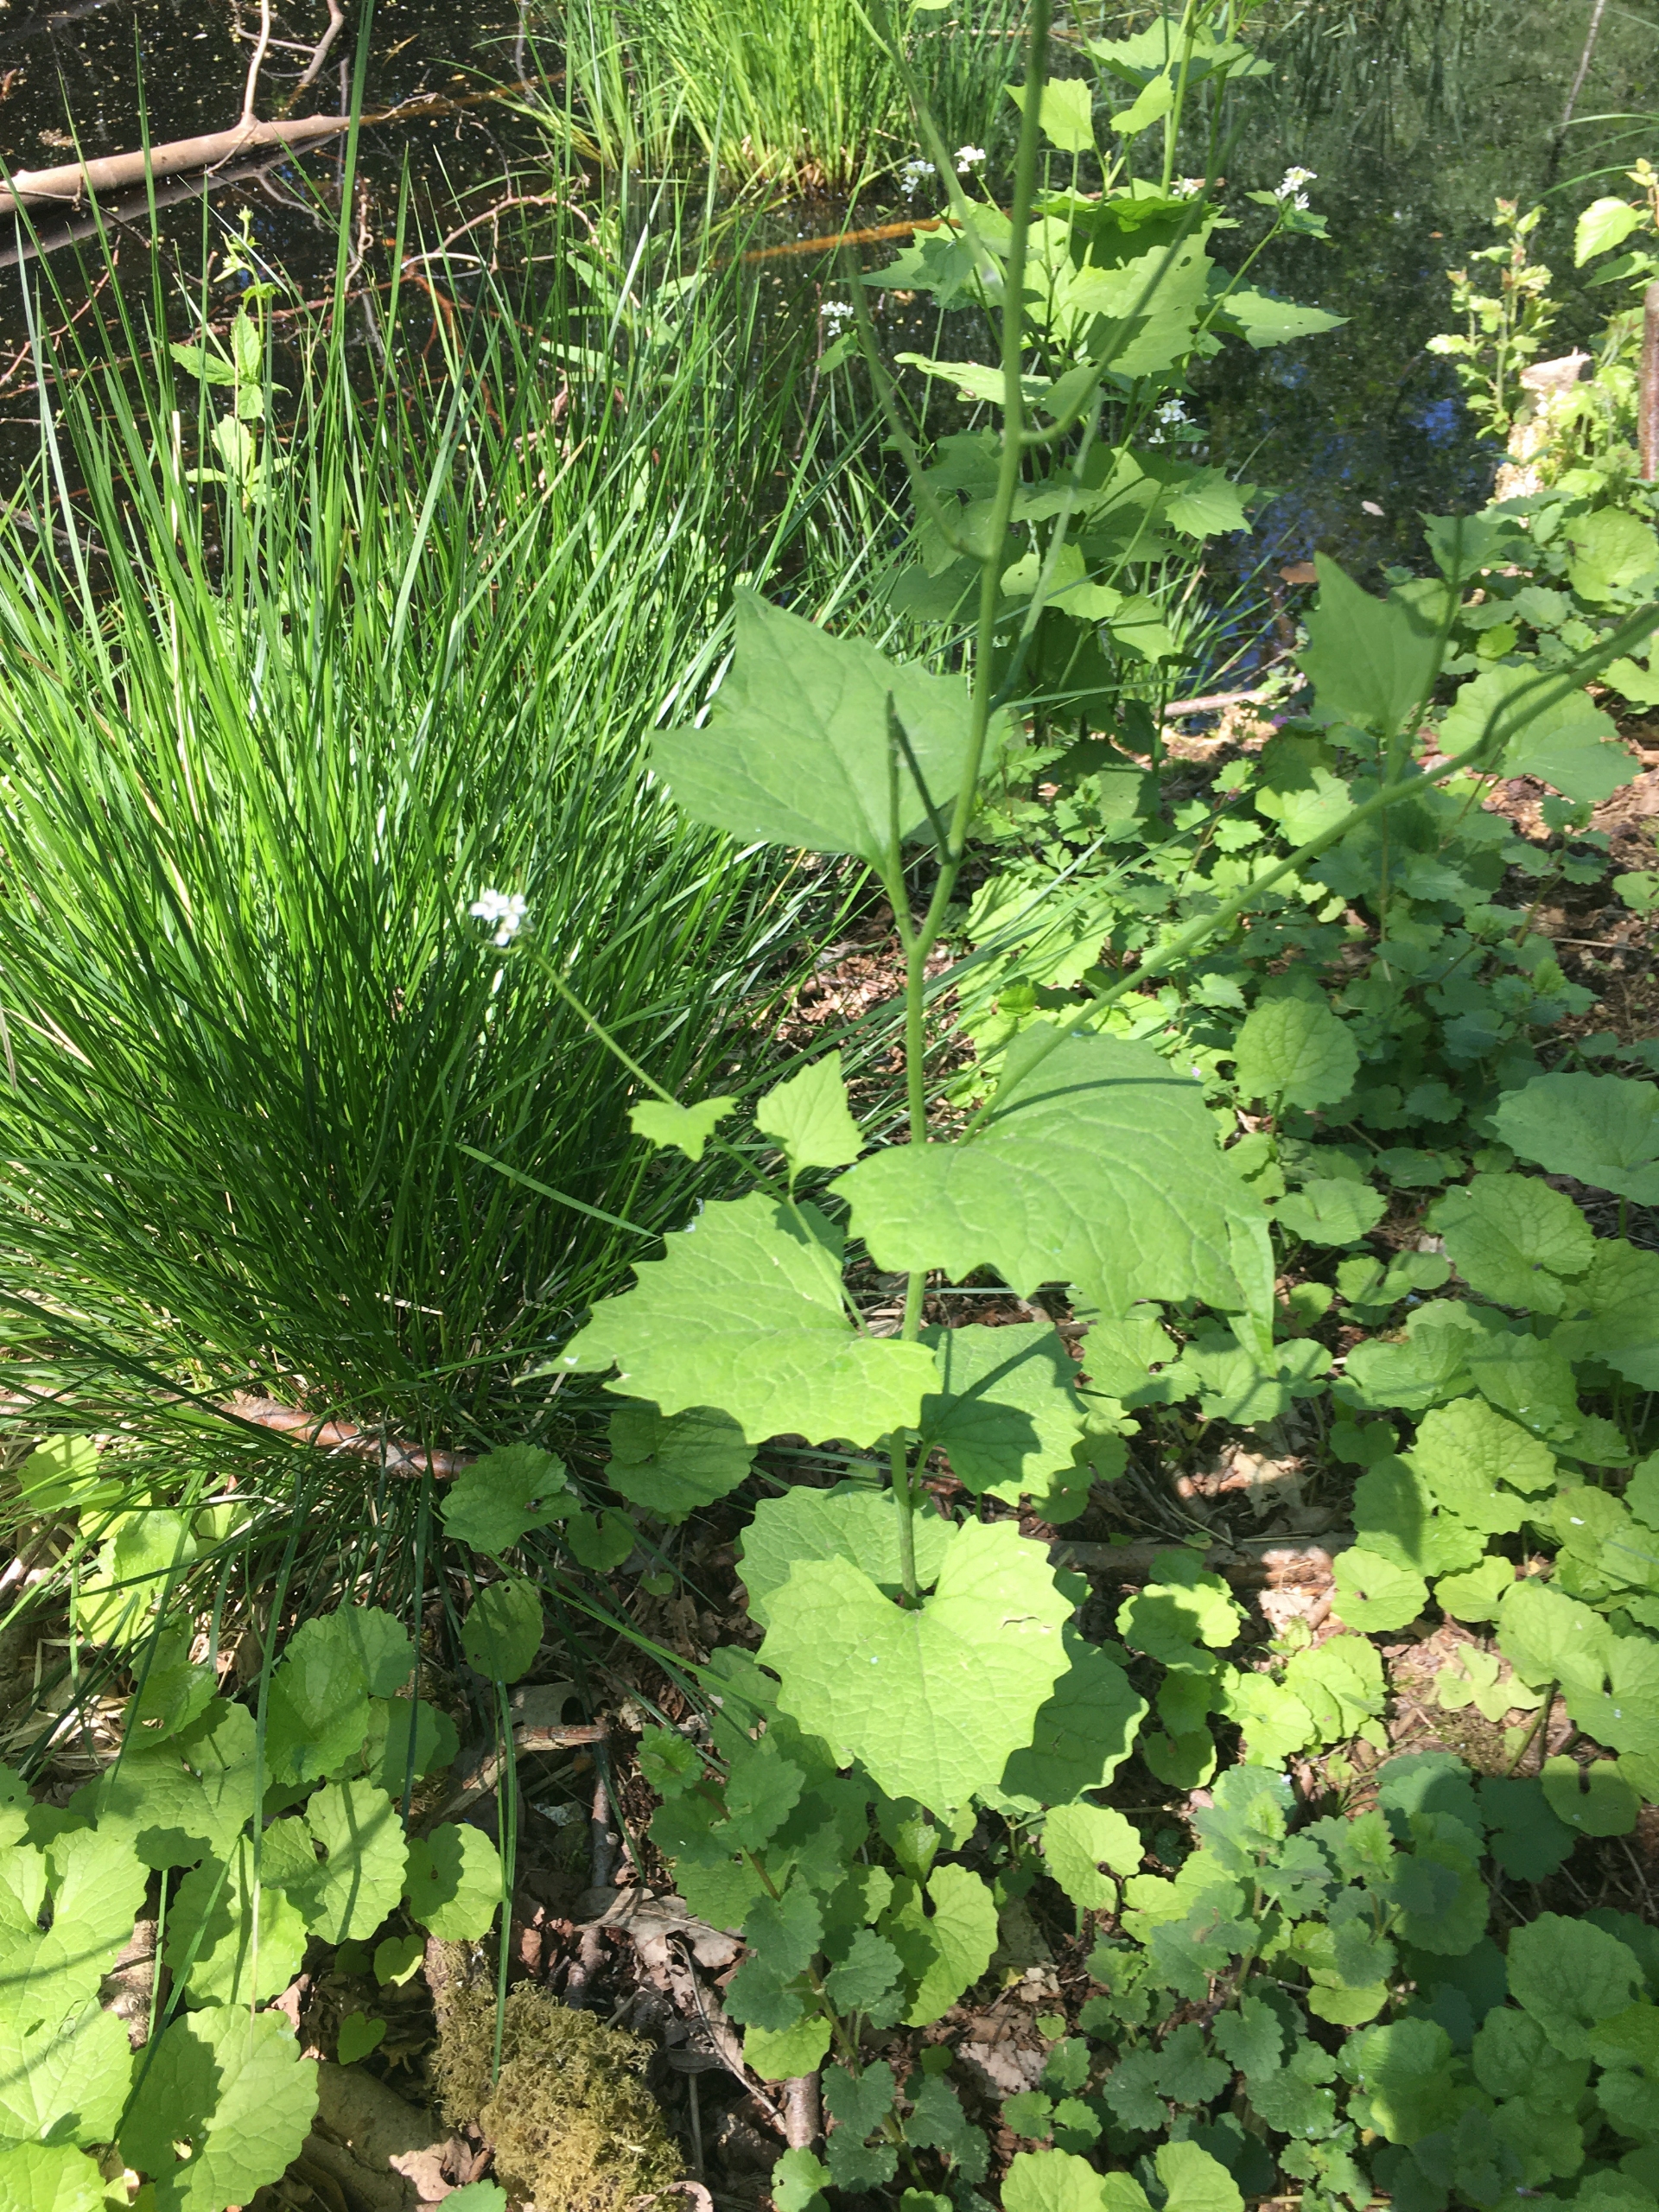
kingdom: Plantae
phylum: Tracheophyta
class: Magnoliopsida
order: Brassicales
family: Brassicaceae
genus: Alliaria
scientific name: Alliaria petiolata
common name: Løgkarse
